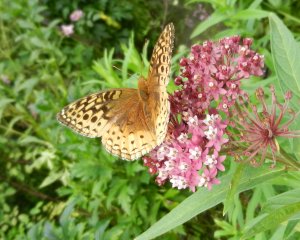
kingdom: Animalia
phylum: Arthropoda
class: Insecta
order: Lepidoptera
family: Nymphalidae
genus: Speyeria
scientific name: Speyeria cybele
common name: Great Spangled Fritillary
